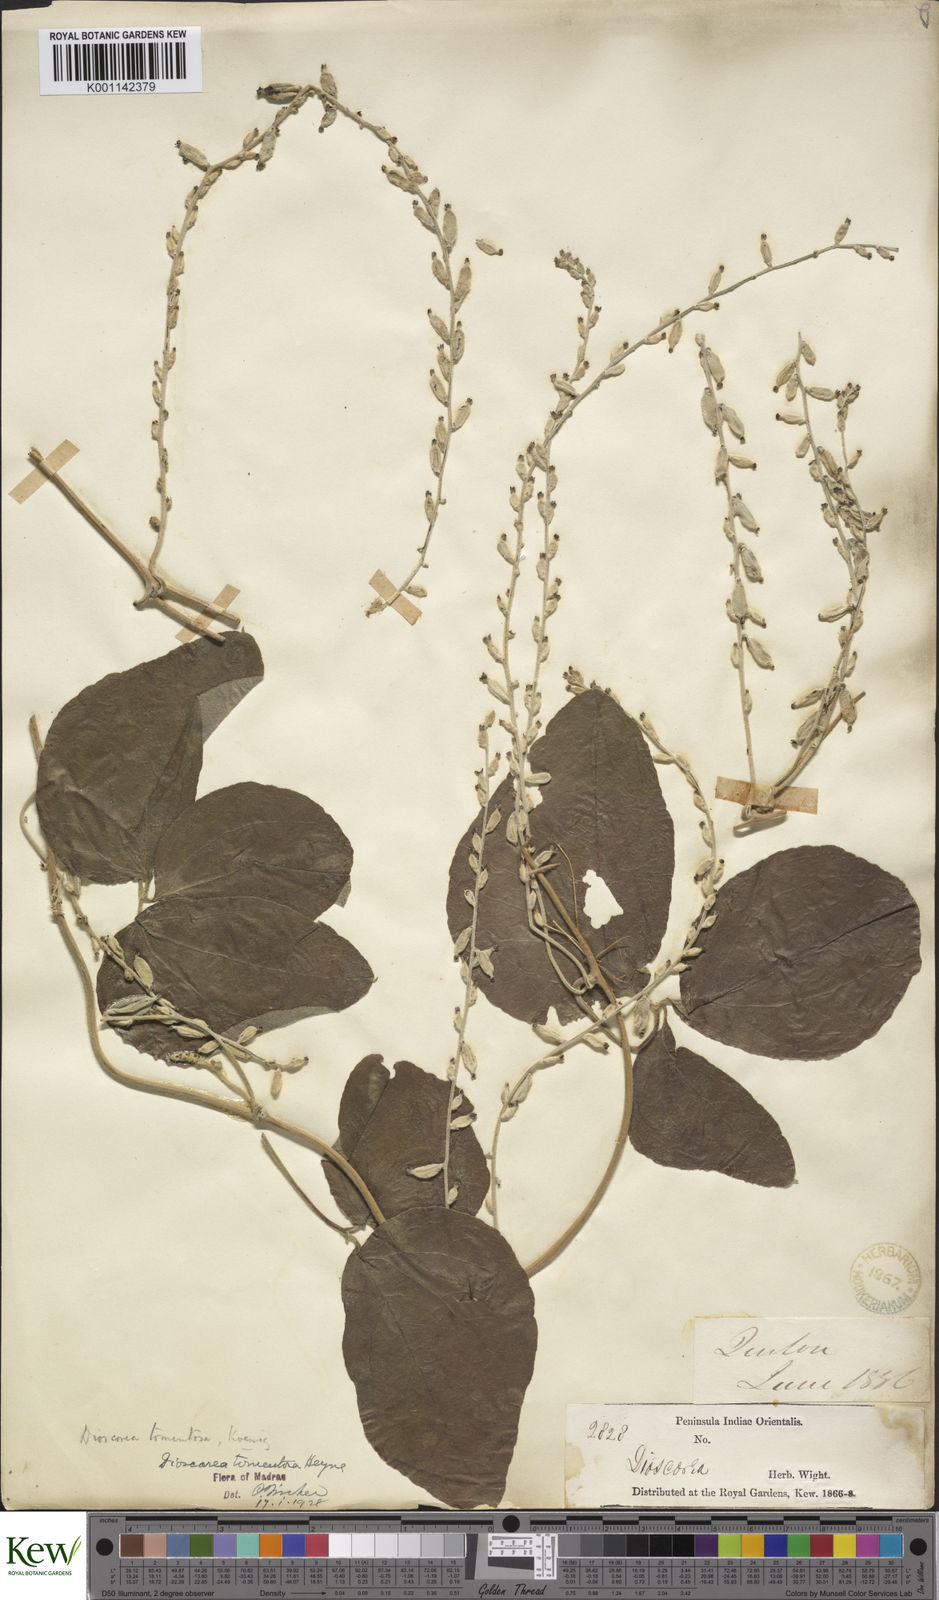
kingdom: Plantae
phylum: Tracheophyta
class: Liliopsida
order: Dioscoreales
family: Dioscoreaceae
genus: Dioscorea
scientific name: Dioscorea
